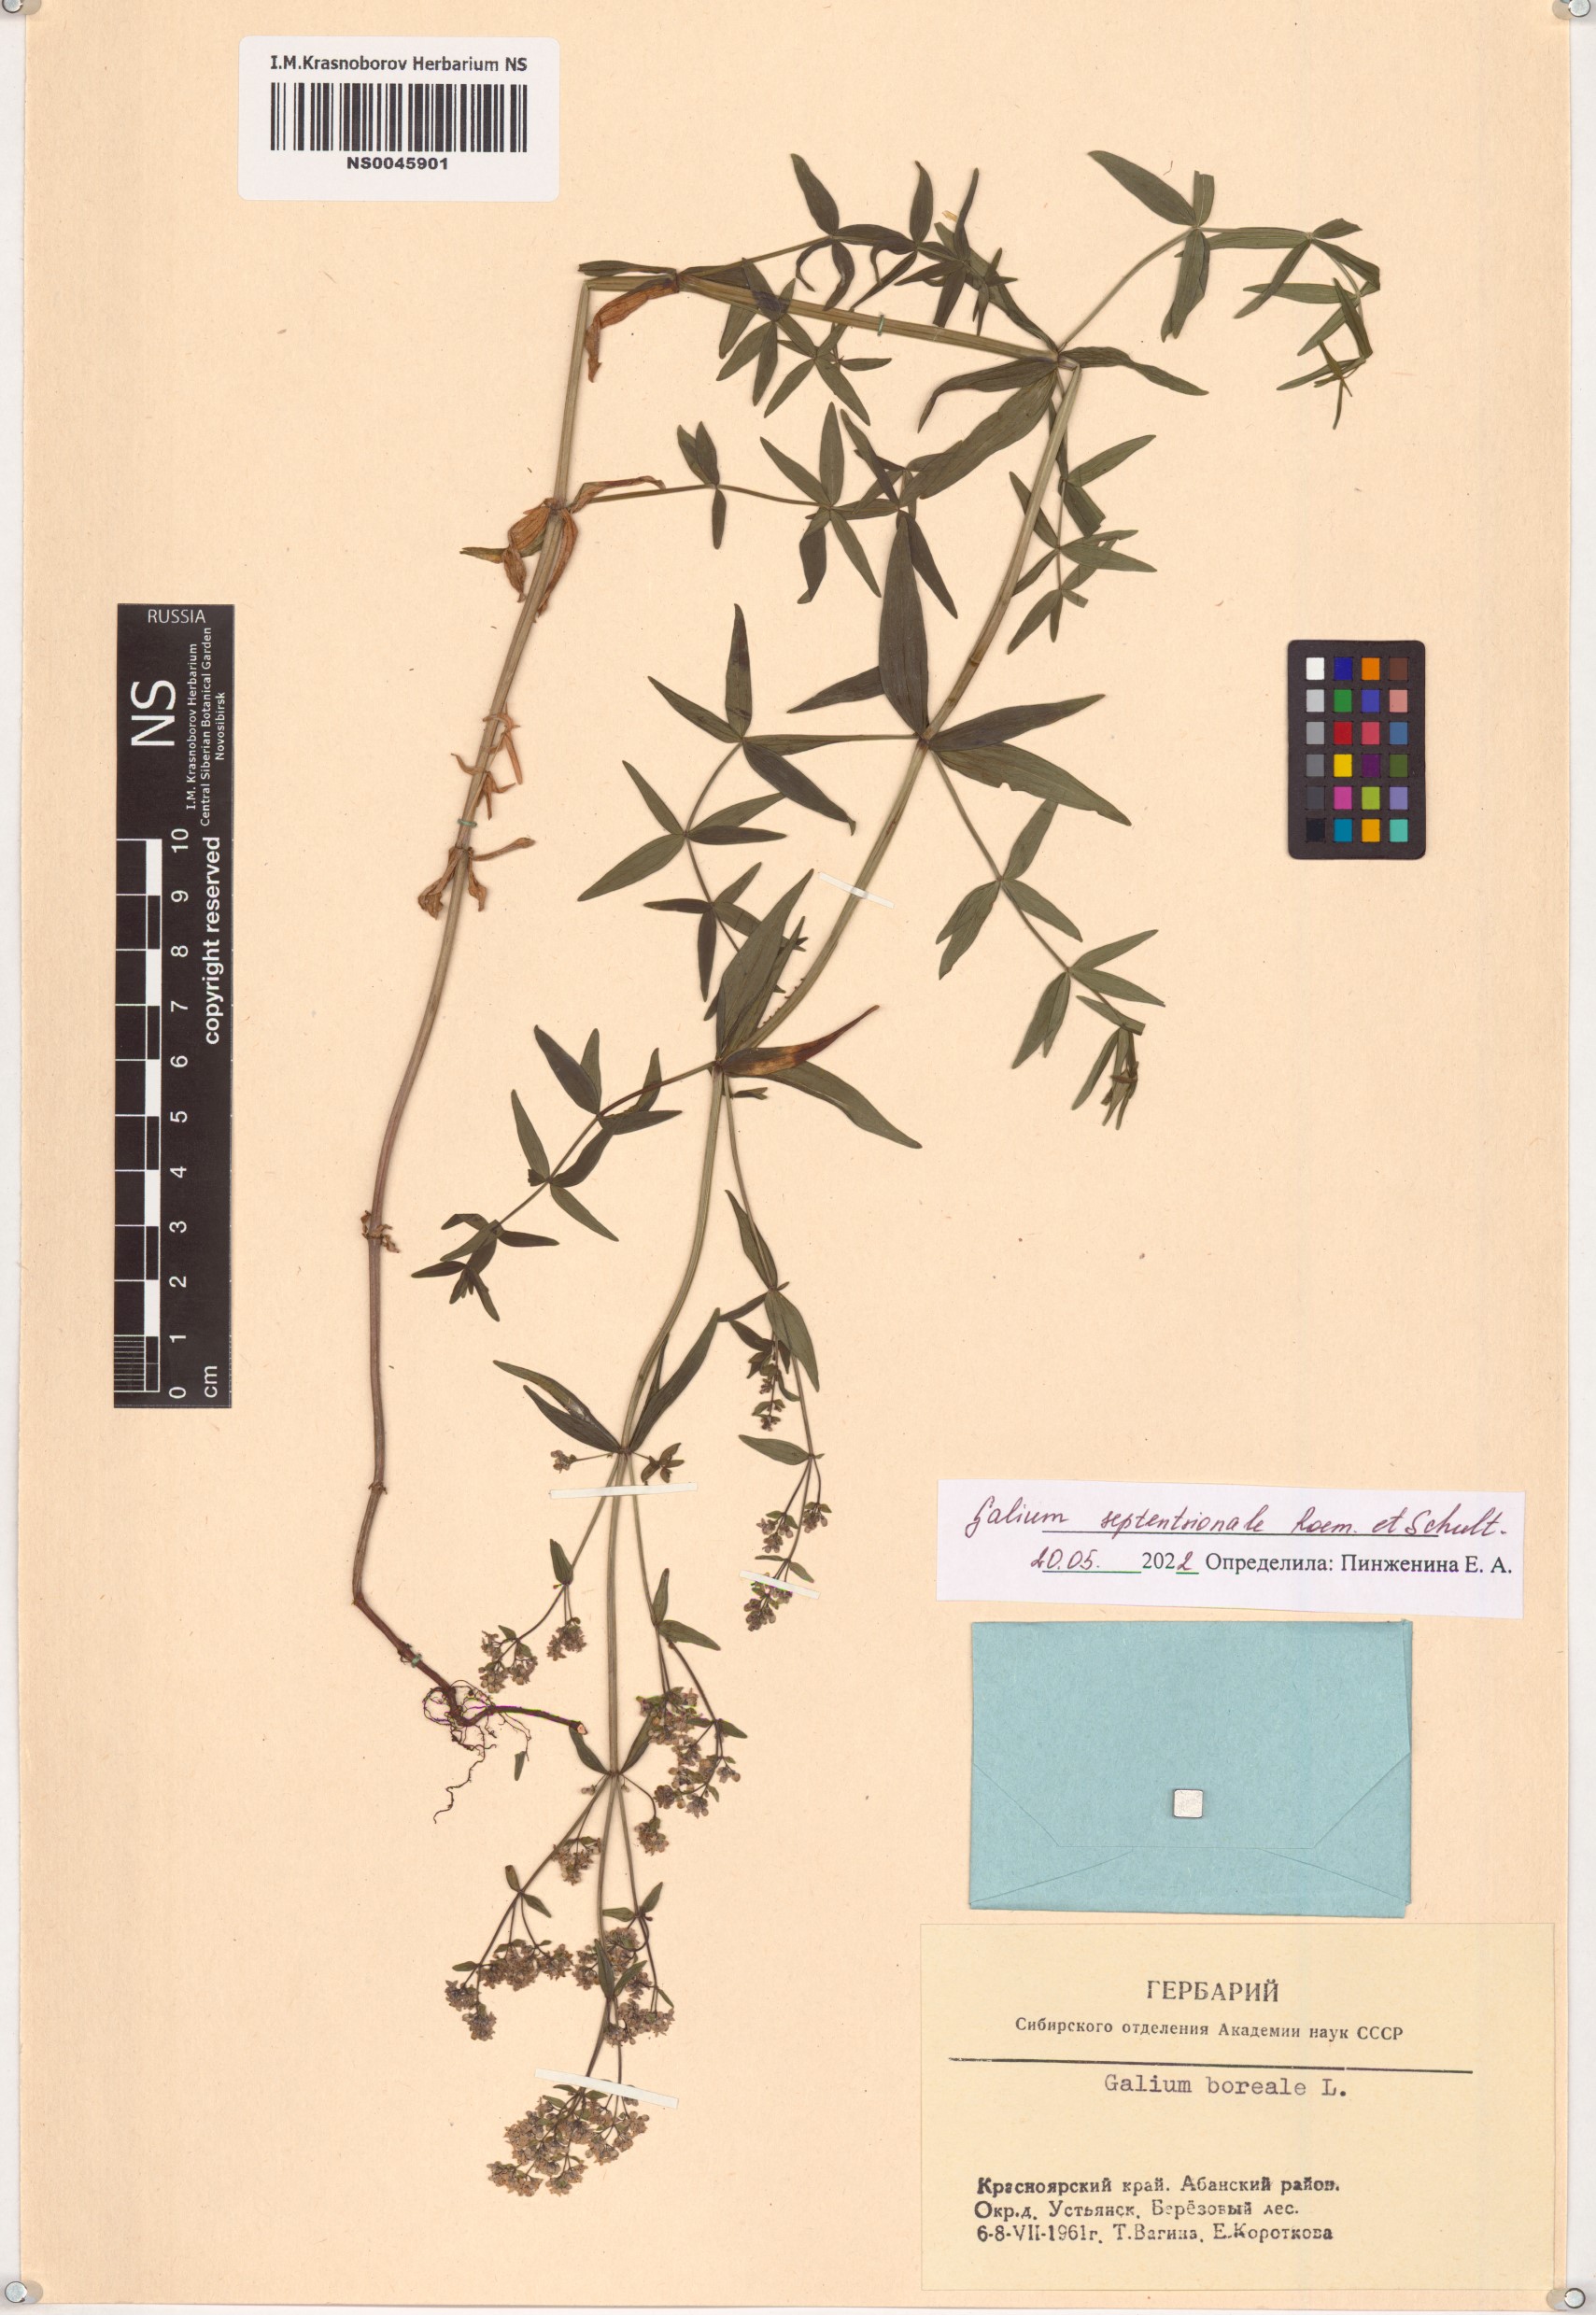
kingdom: Plantae
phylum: Tracheophyta
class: Magnoliopsida
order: Gentianales
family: Rubiaceae
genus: Galium
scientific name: Galium boreale
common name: Northern bedstraw
